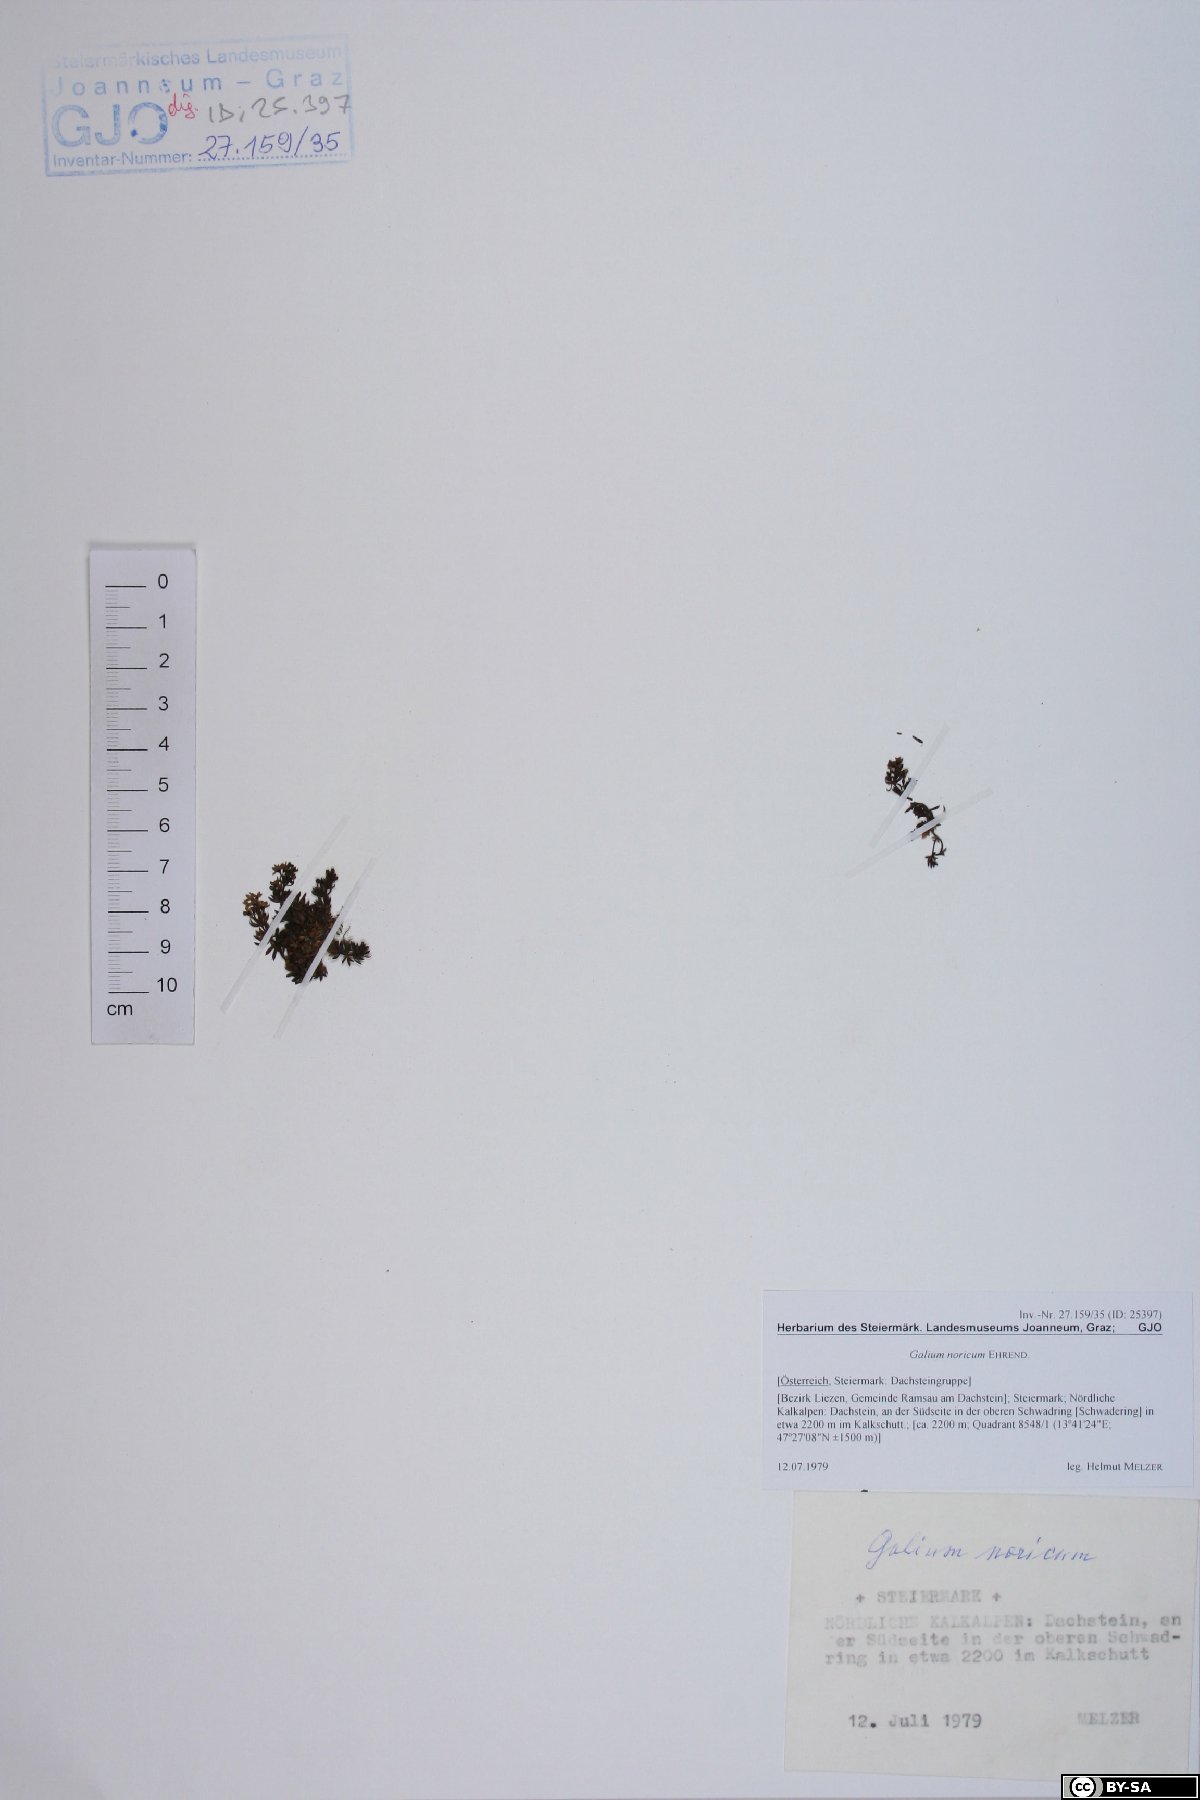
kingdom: Plantae
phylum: Tracheophyta
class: Magnoliopsida
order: Gentianales
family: Rubiaceae
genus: Galium
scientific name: Galium noricum
